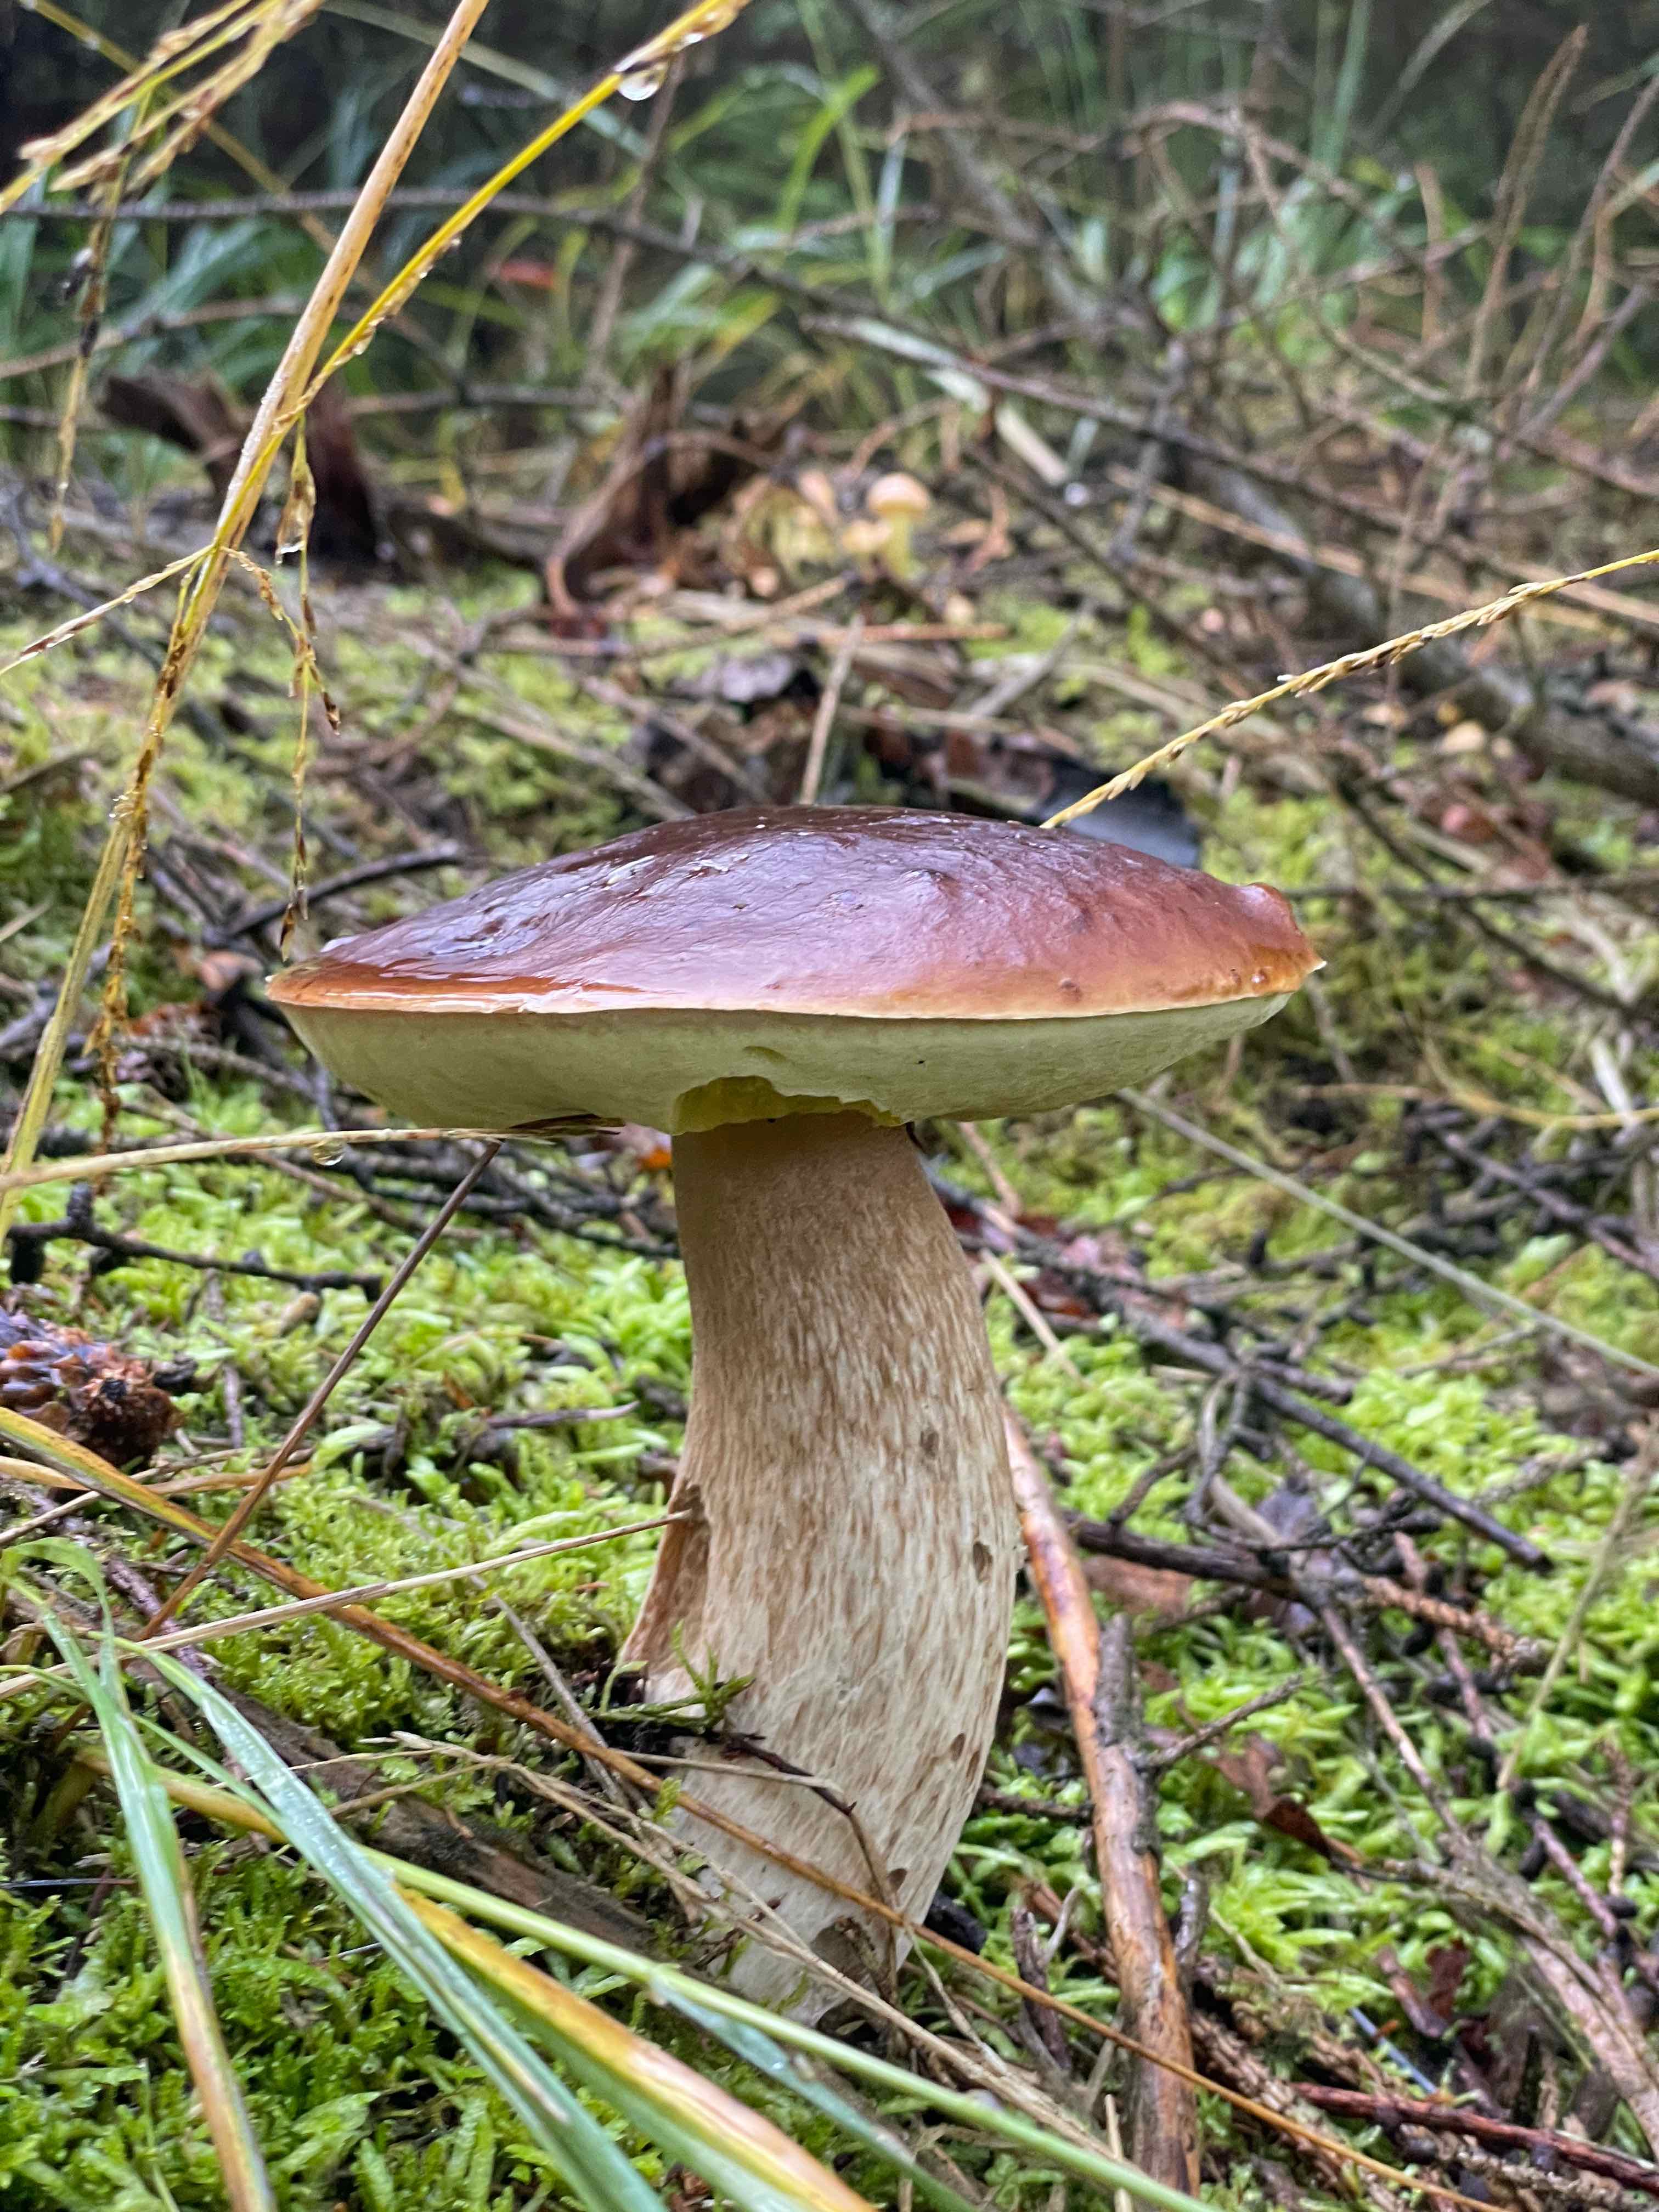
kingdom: Fungi
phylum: Basidiomycota
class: Agaricomycetes
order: Boletales
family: Boletaceae
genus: Imleria
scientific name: Imleria badia
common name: brunstokket rørhat
